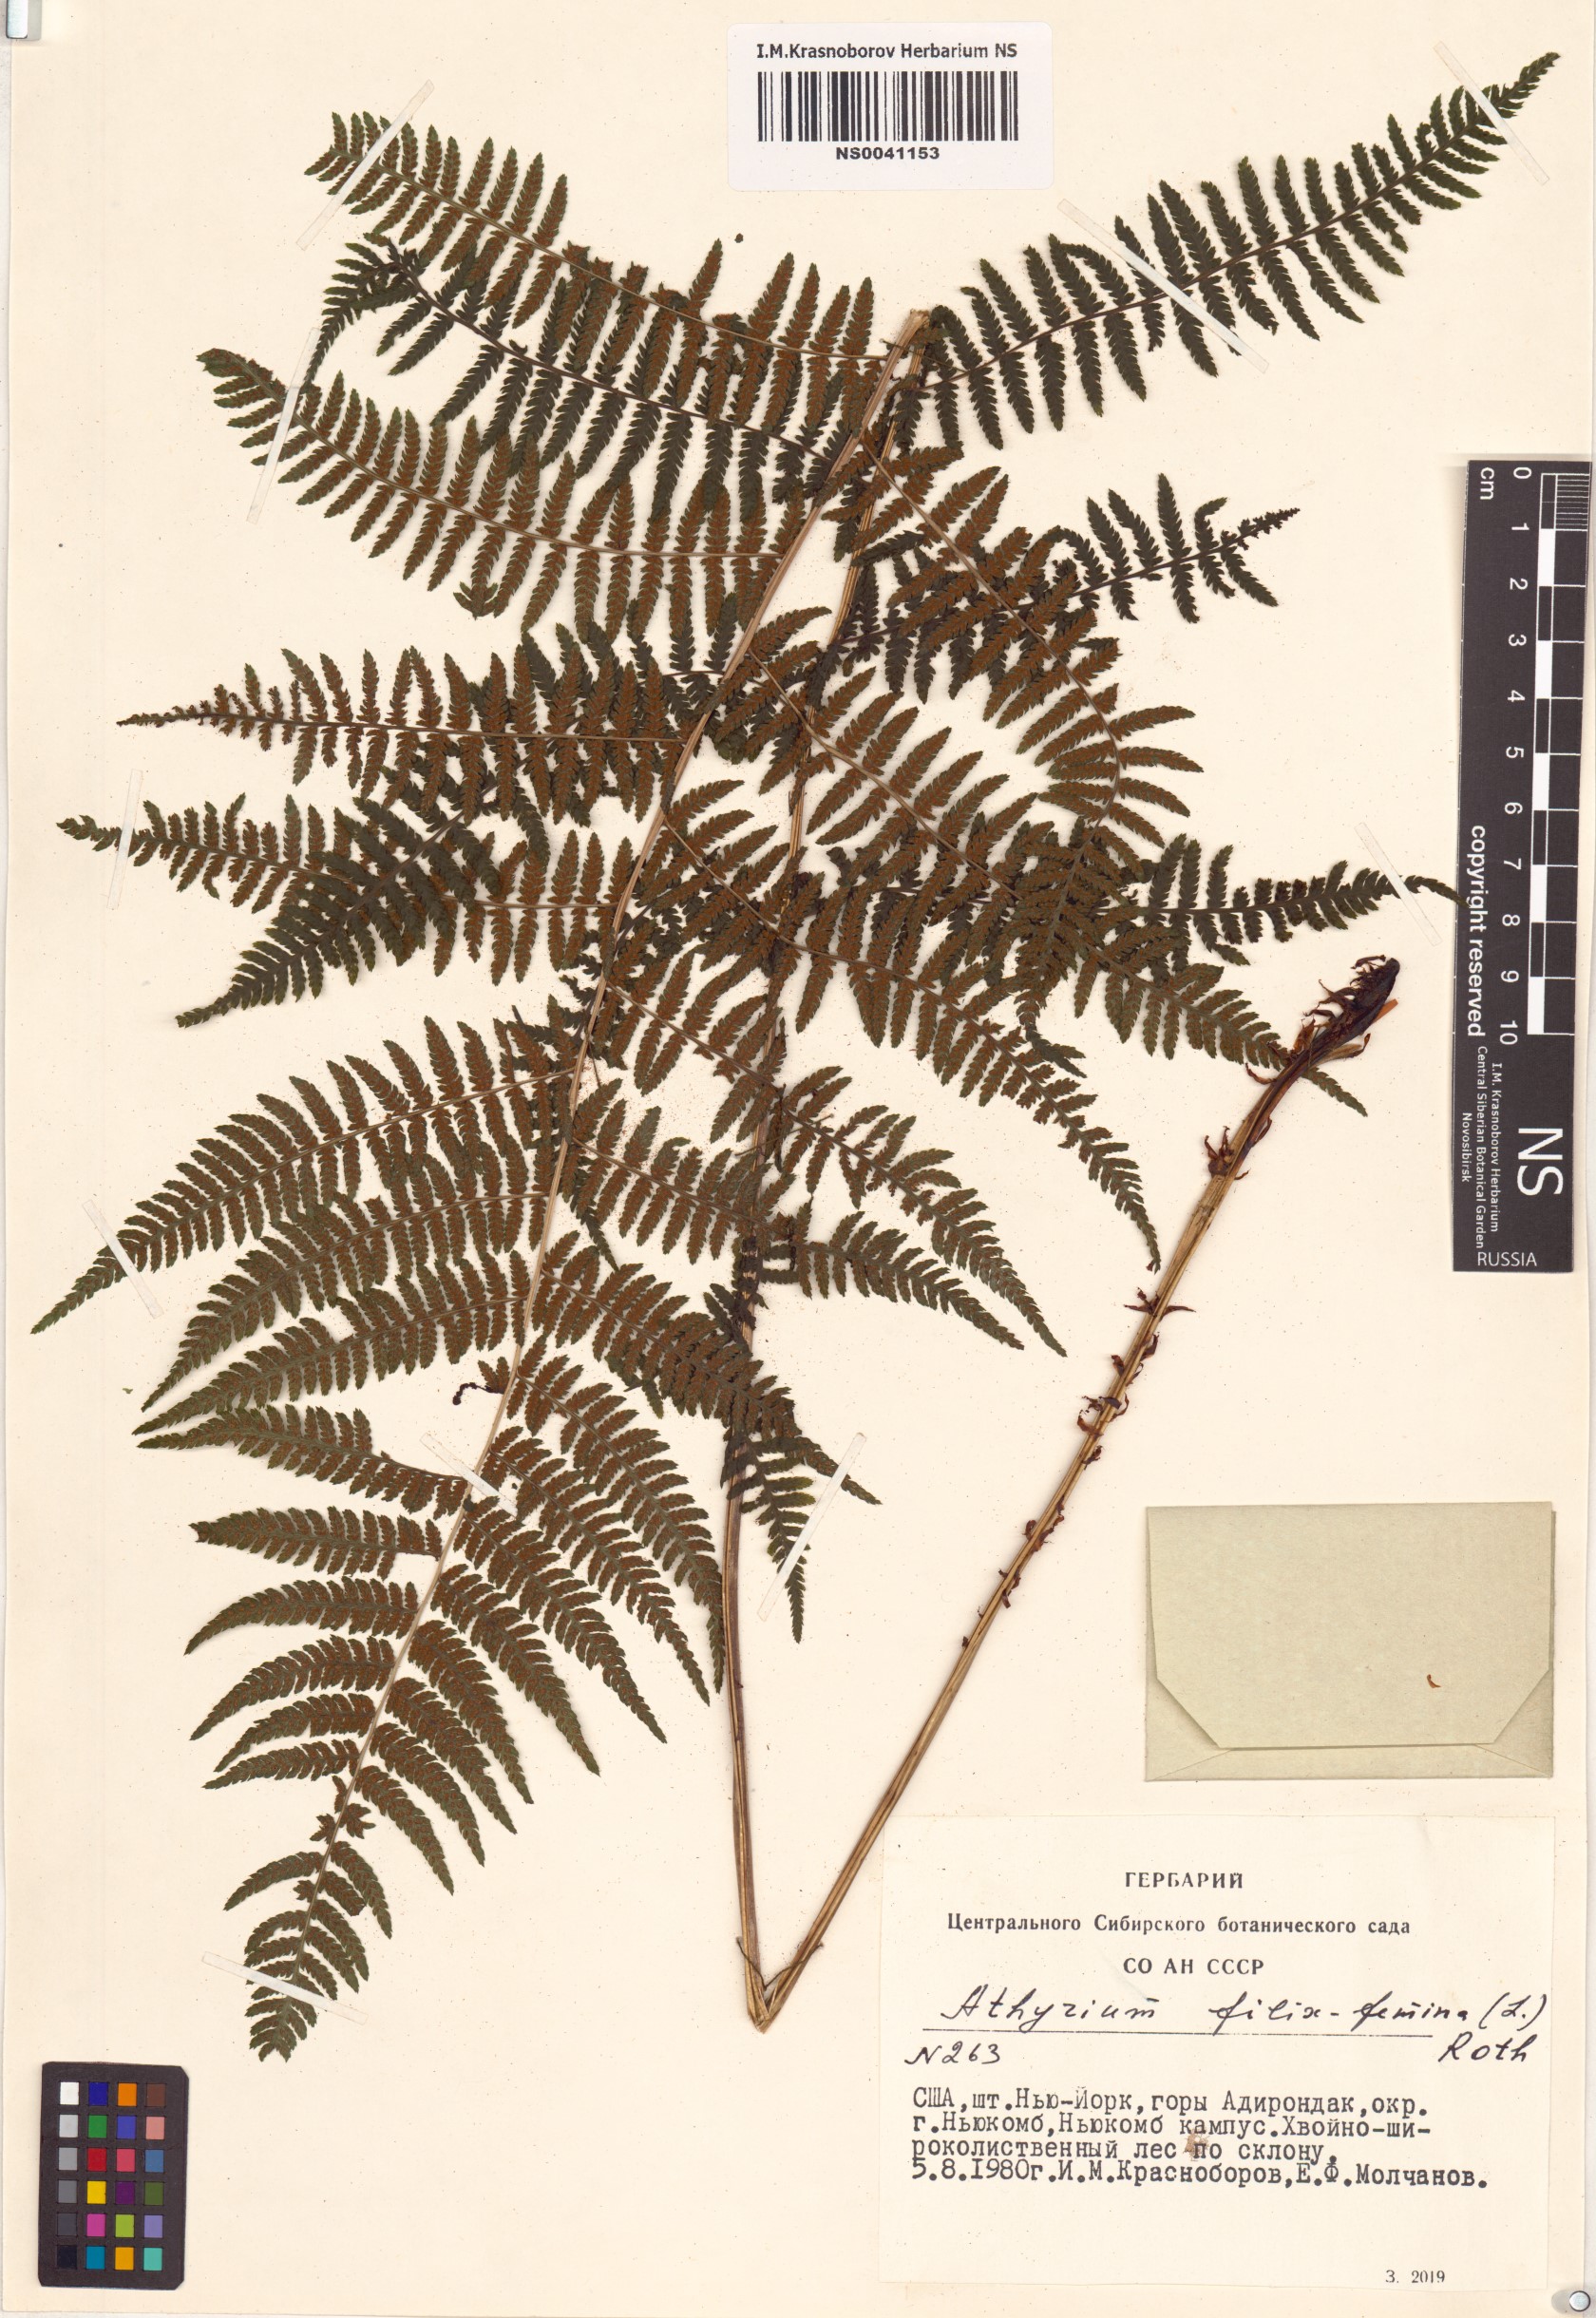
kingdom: Plantae
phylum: Tracheophyta
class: Polypodiopsida
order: Polypodiales
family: Athyriaceae
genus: Athyrium
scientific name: Athyrium filix-femina
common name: Lady fern
